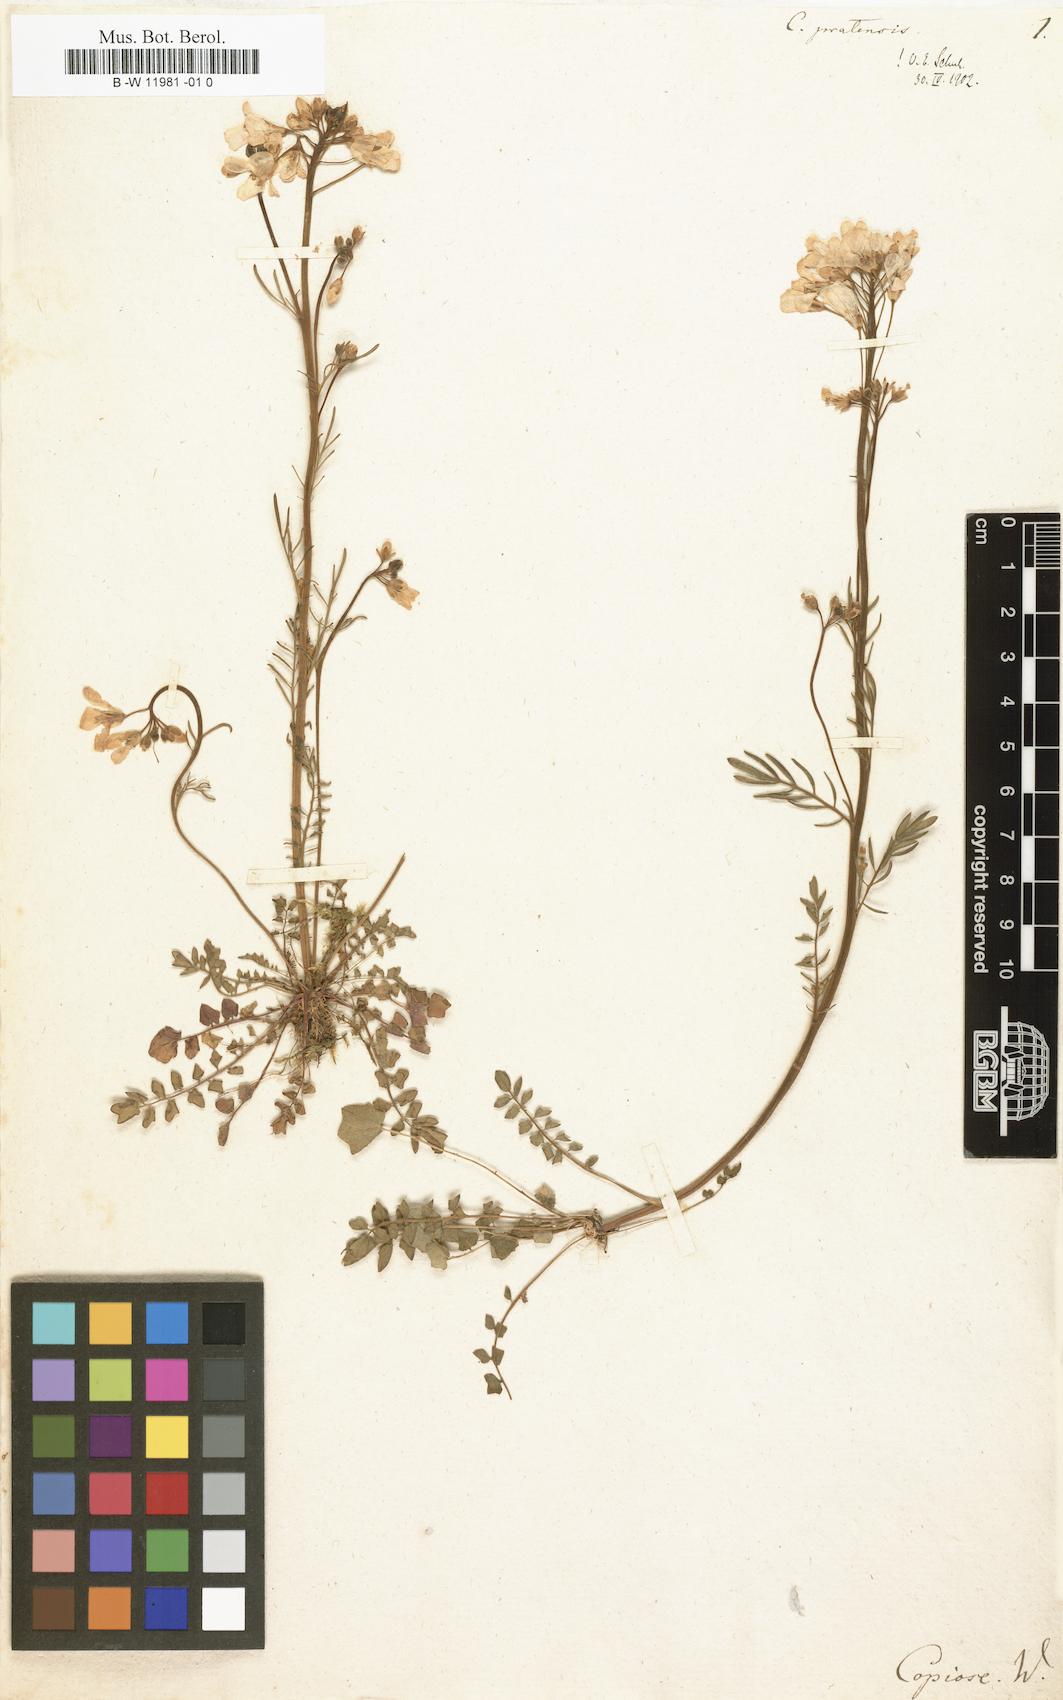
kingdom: Plantae
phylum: Tracheophyta
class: Magnoliopsida
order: Brassicales
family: Brassicaceae
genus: Cardamine
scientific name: Cardamine pratensis
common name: Cuckoo flower
